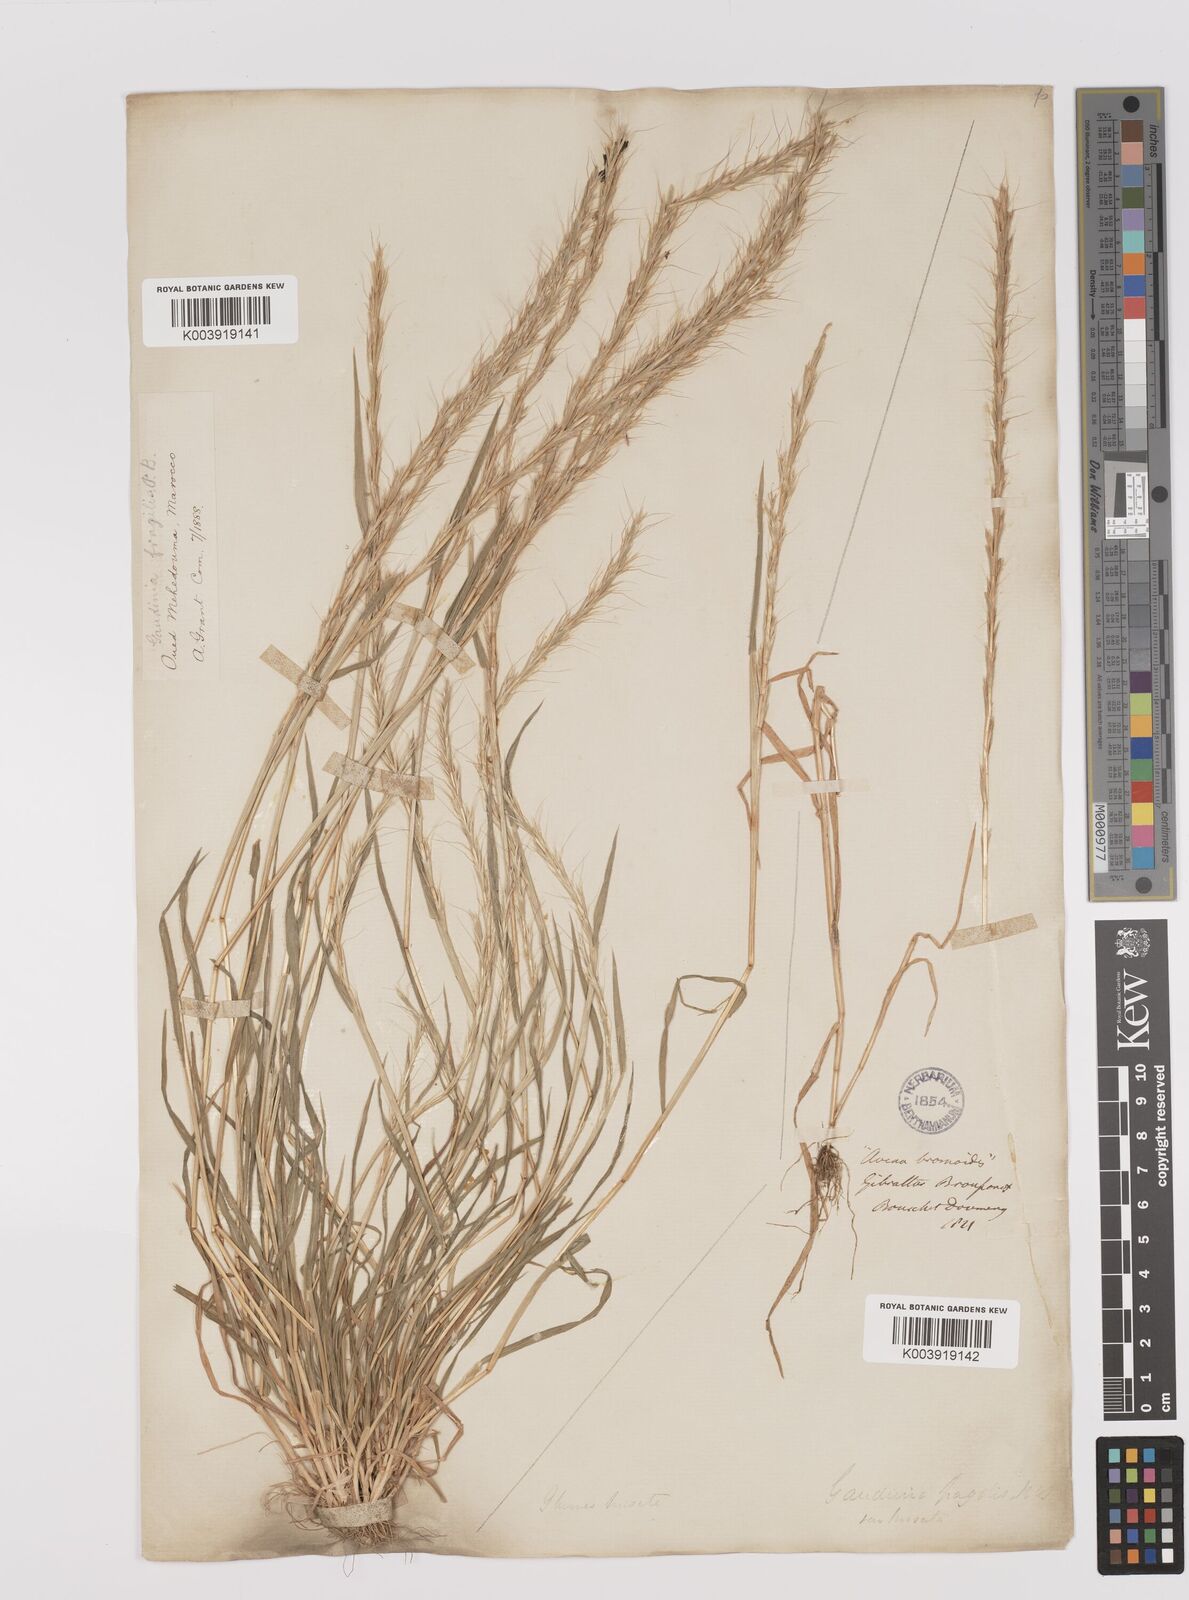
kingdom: Plantae
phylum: Tracheophyta
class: Liliopsida
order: Poales
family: Poaceae
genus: Gaudinia
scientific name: Gaudinia fragilis
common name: French oat-grass
